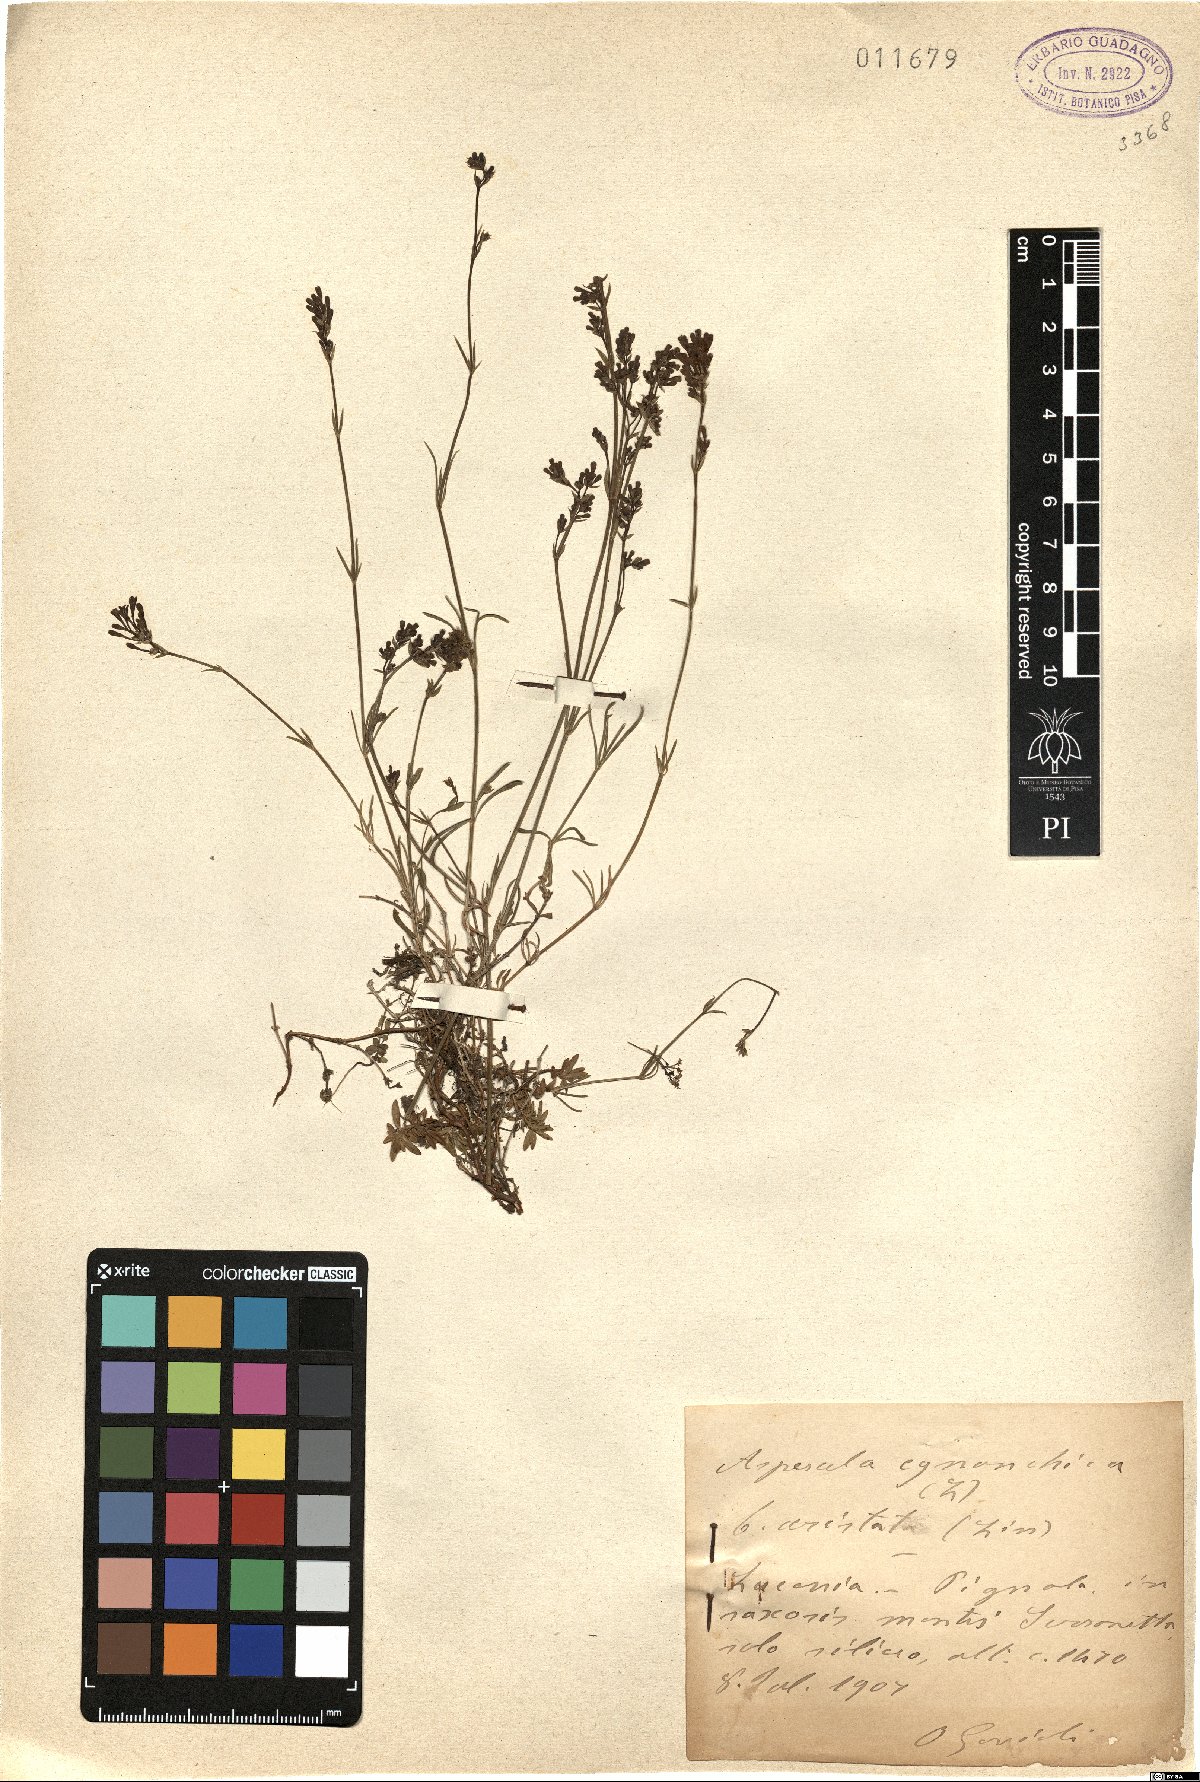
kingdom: Plantae
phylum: Tracheophyta
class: Magnoliopsida
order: Gentianales
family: Rubiaceae
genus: Cynanchica
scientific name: Cynanchica aristata
